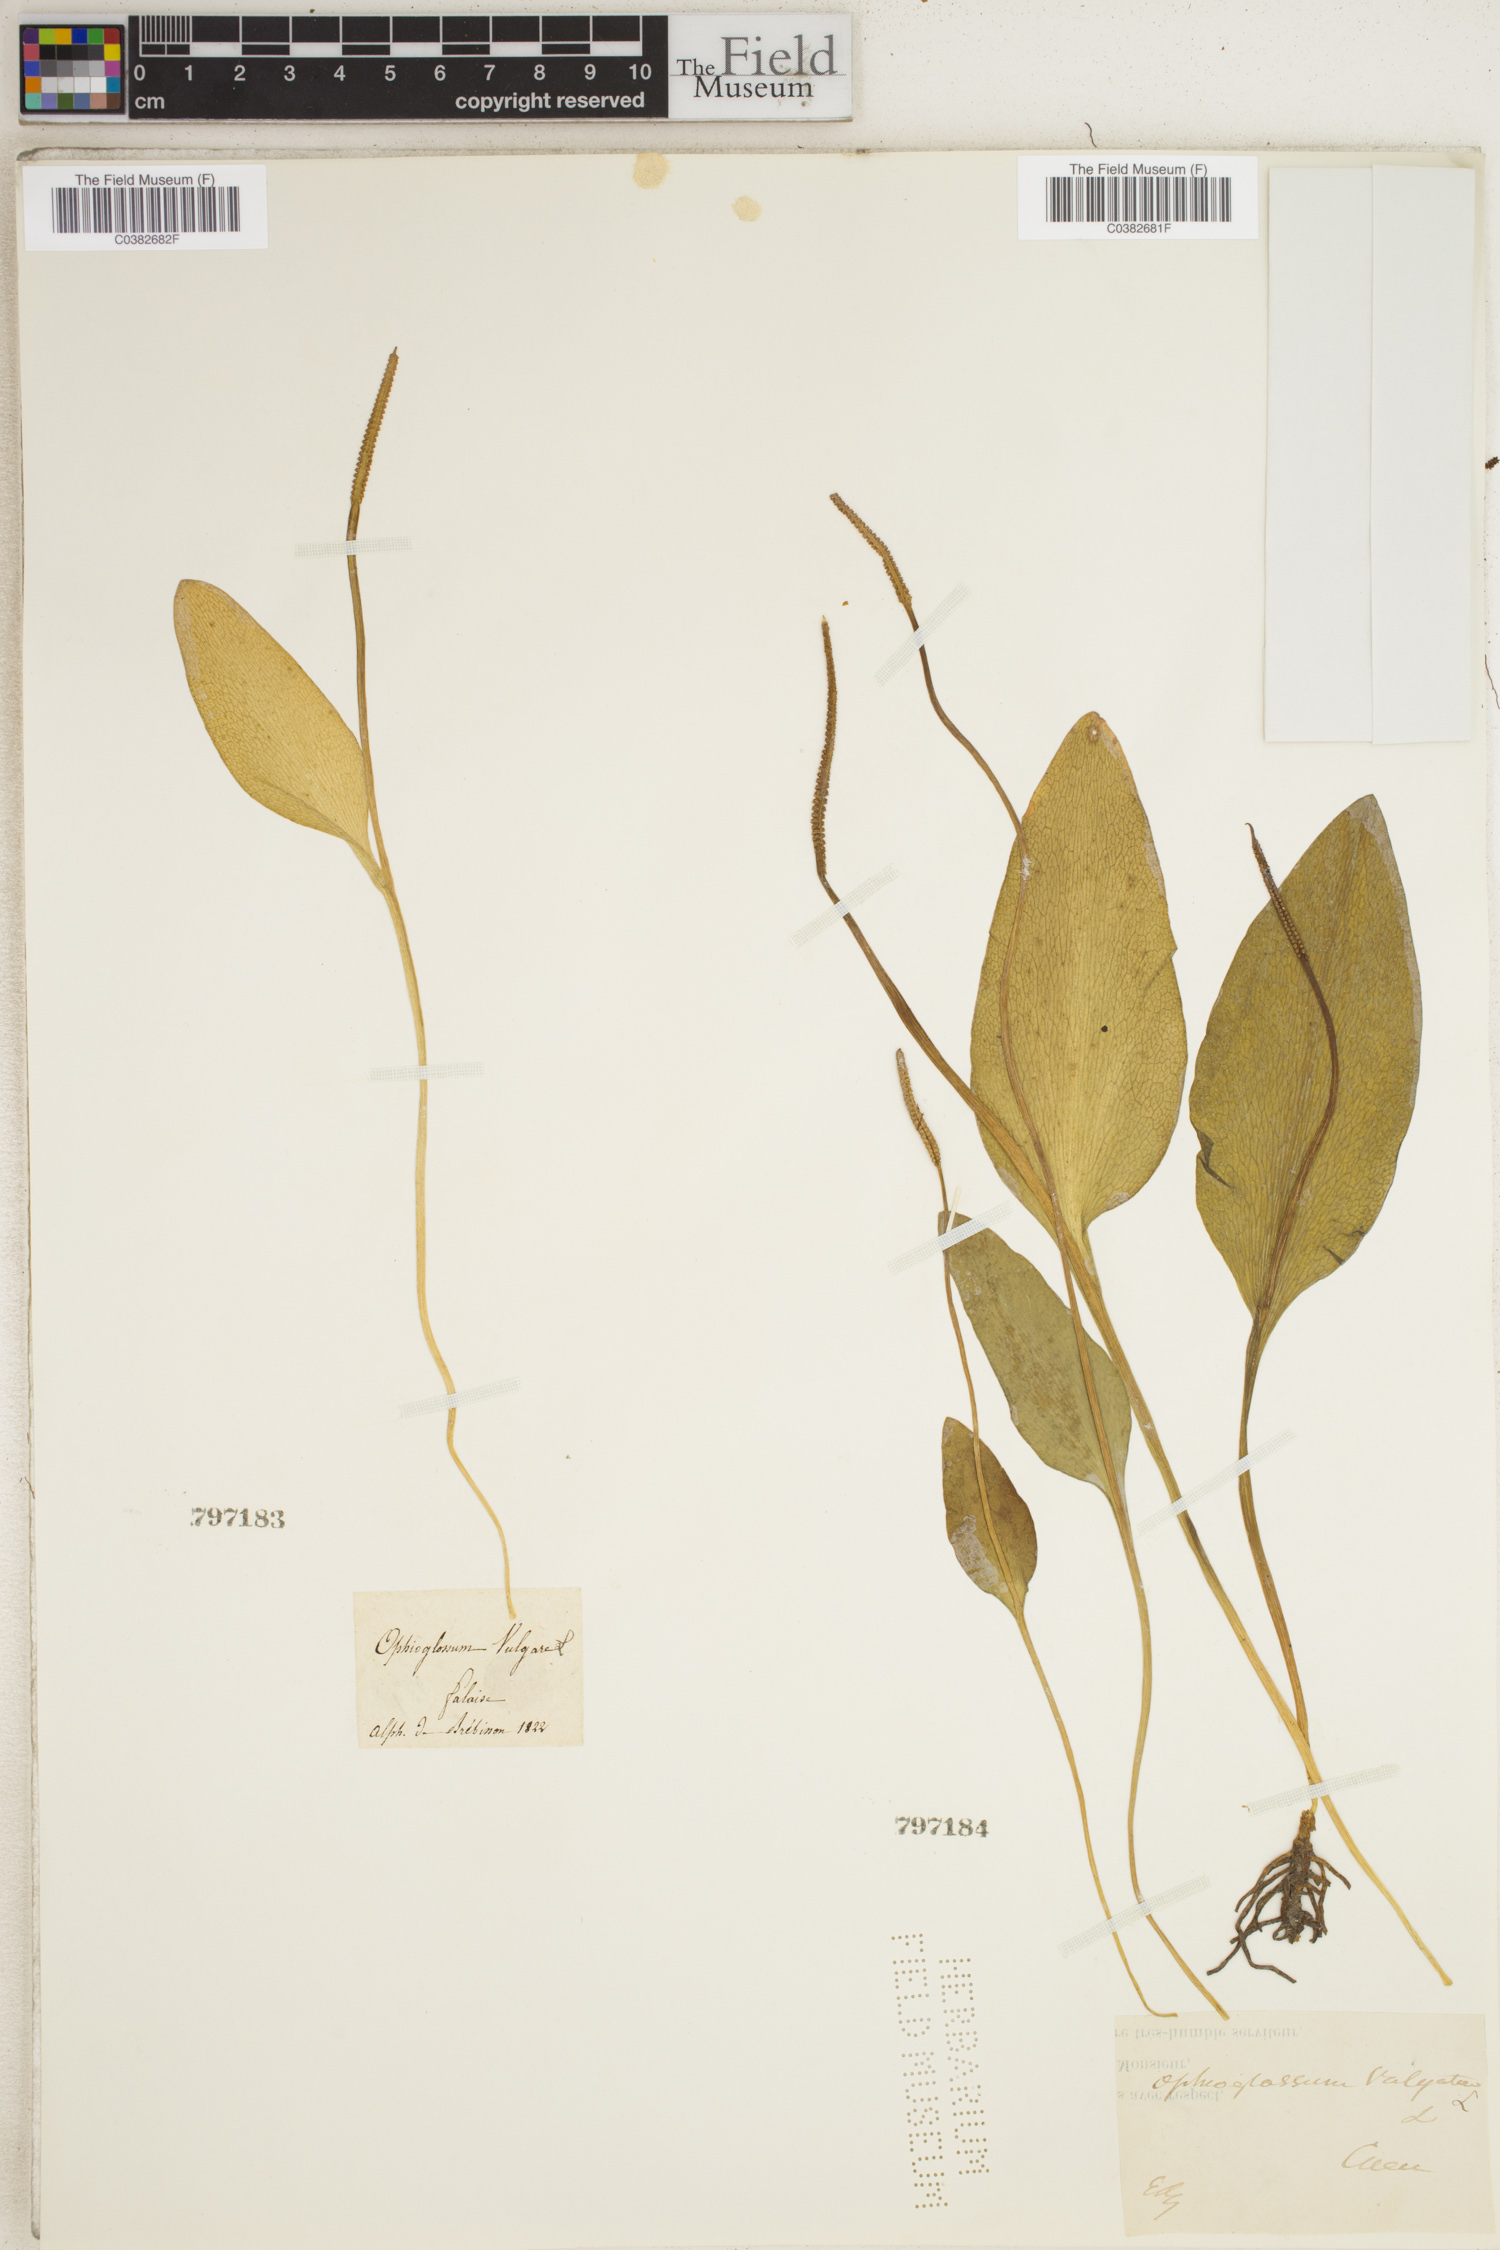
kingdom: Plantae
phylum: Tracheophyta
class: Polypodiopsida
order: Ophioglossales
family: Ophioglossaceae
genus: Ophioglossum
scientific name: Ophioglossum vulgatum
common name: Adder's-tongue
